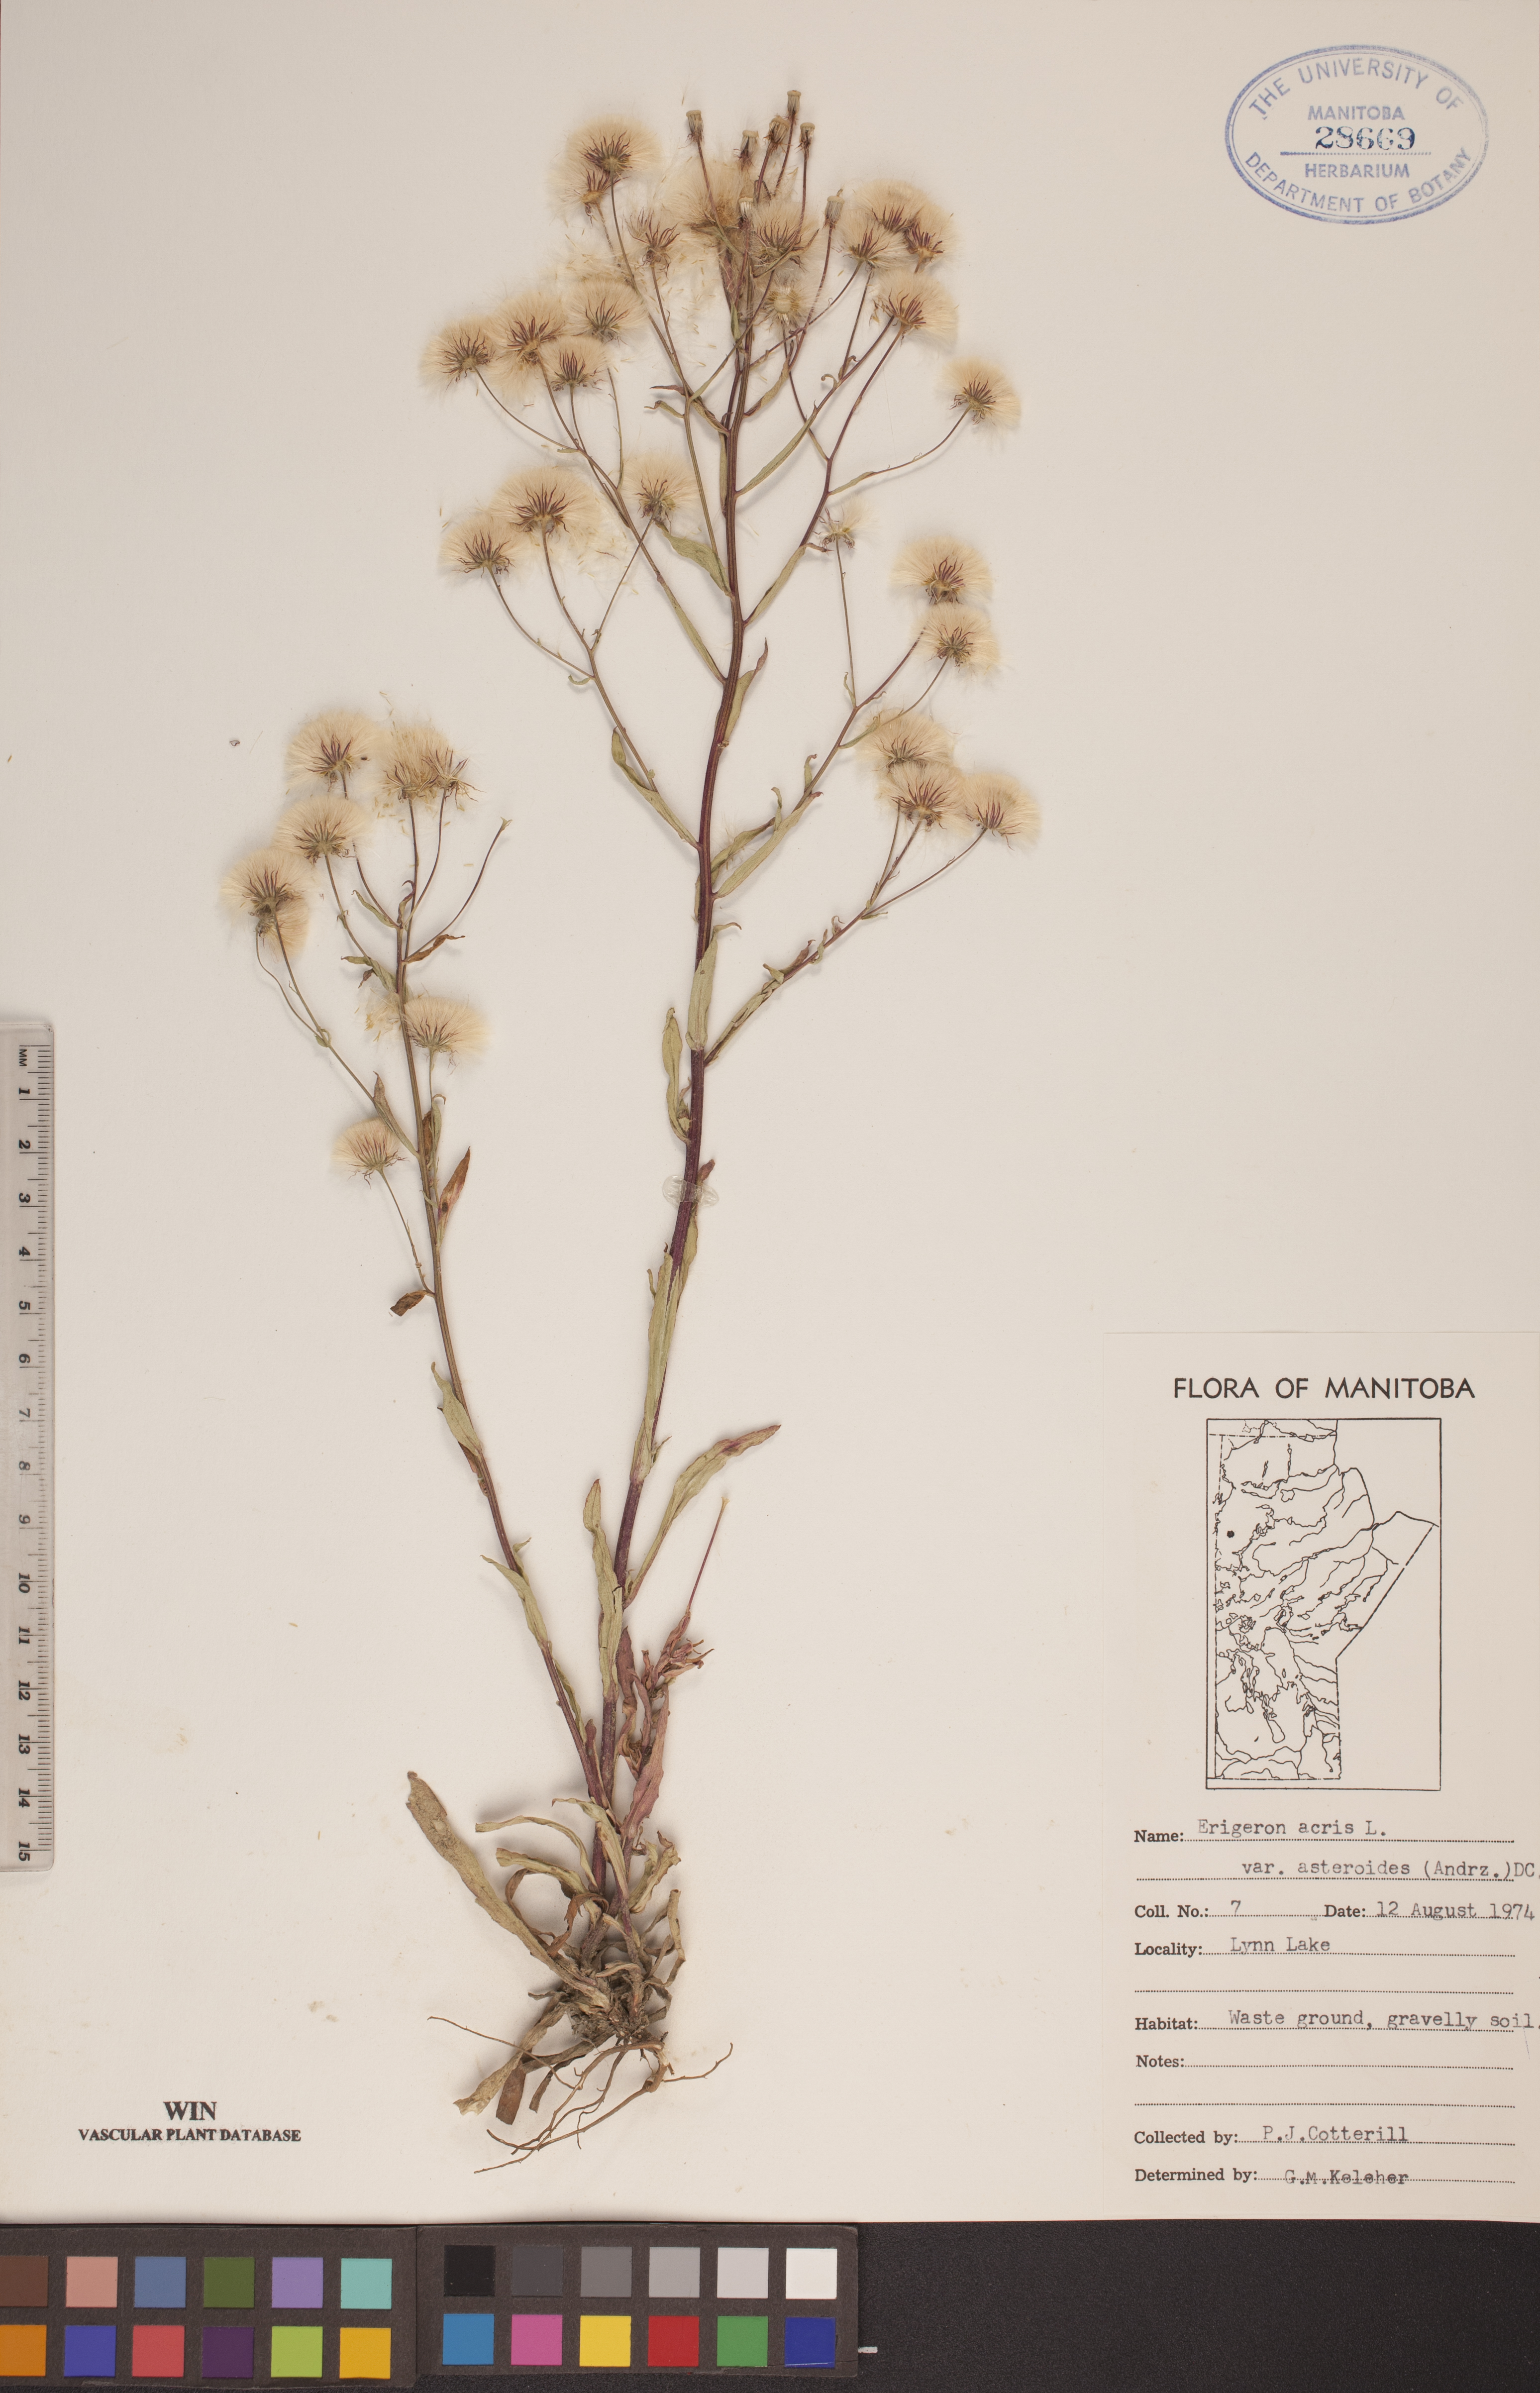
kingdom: Plantae
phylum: Tracheophyta
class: Magnoliopsida
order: Asterales
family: Asteraceae
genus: Erigeron
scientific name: Erigeron podolicus
